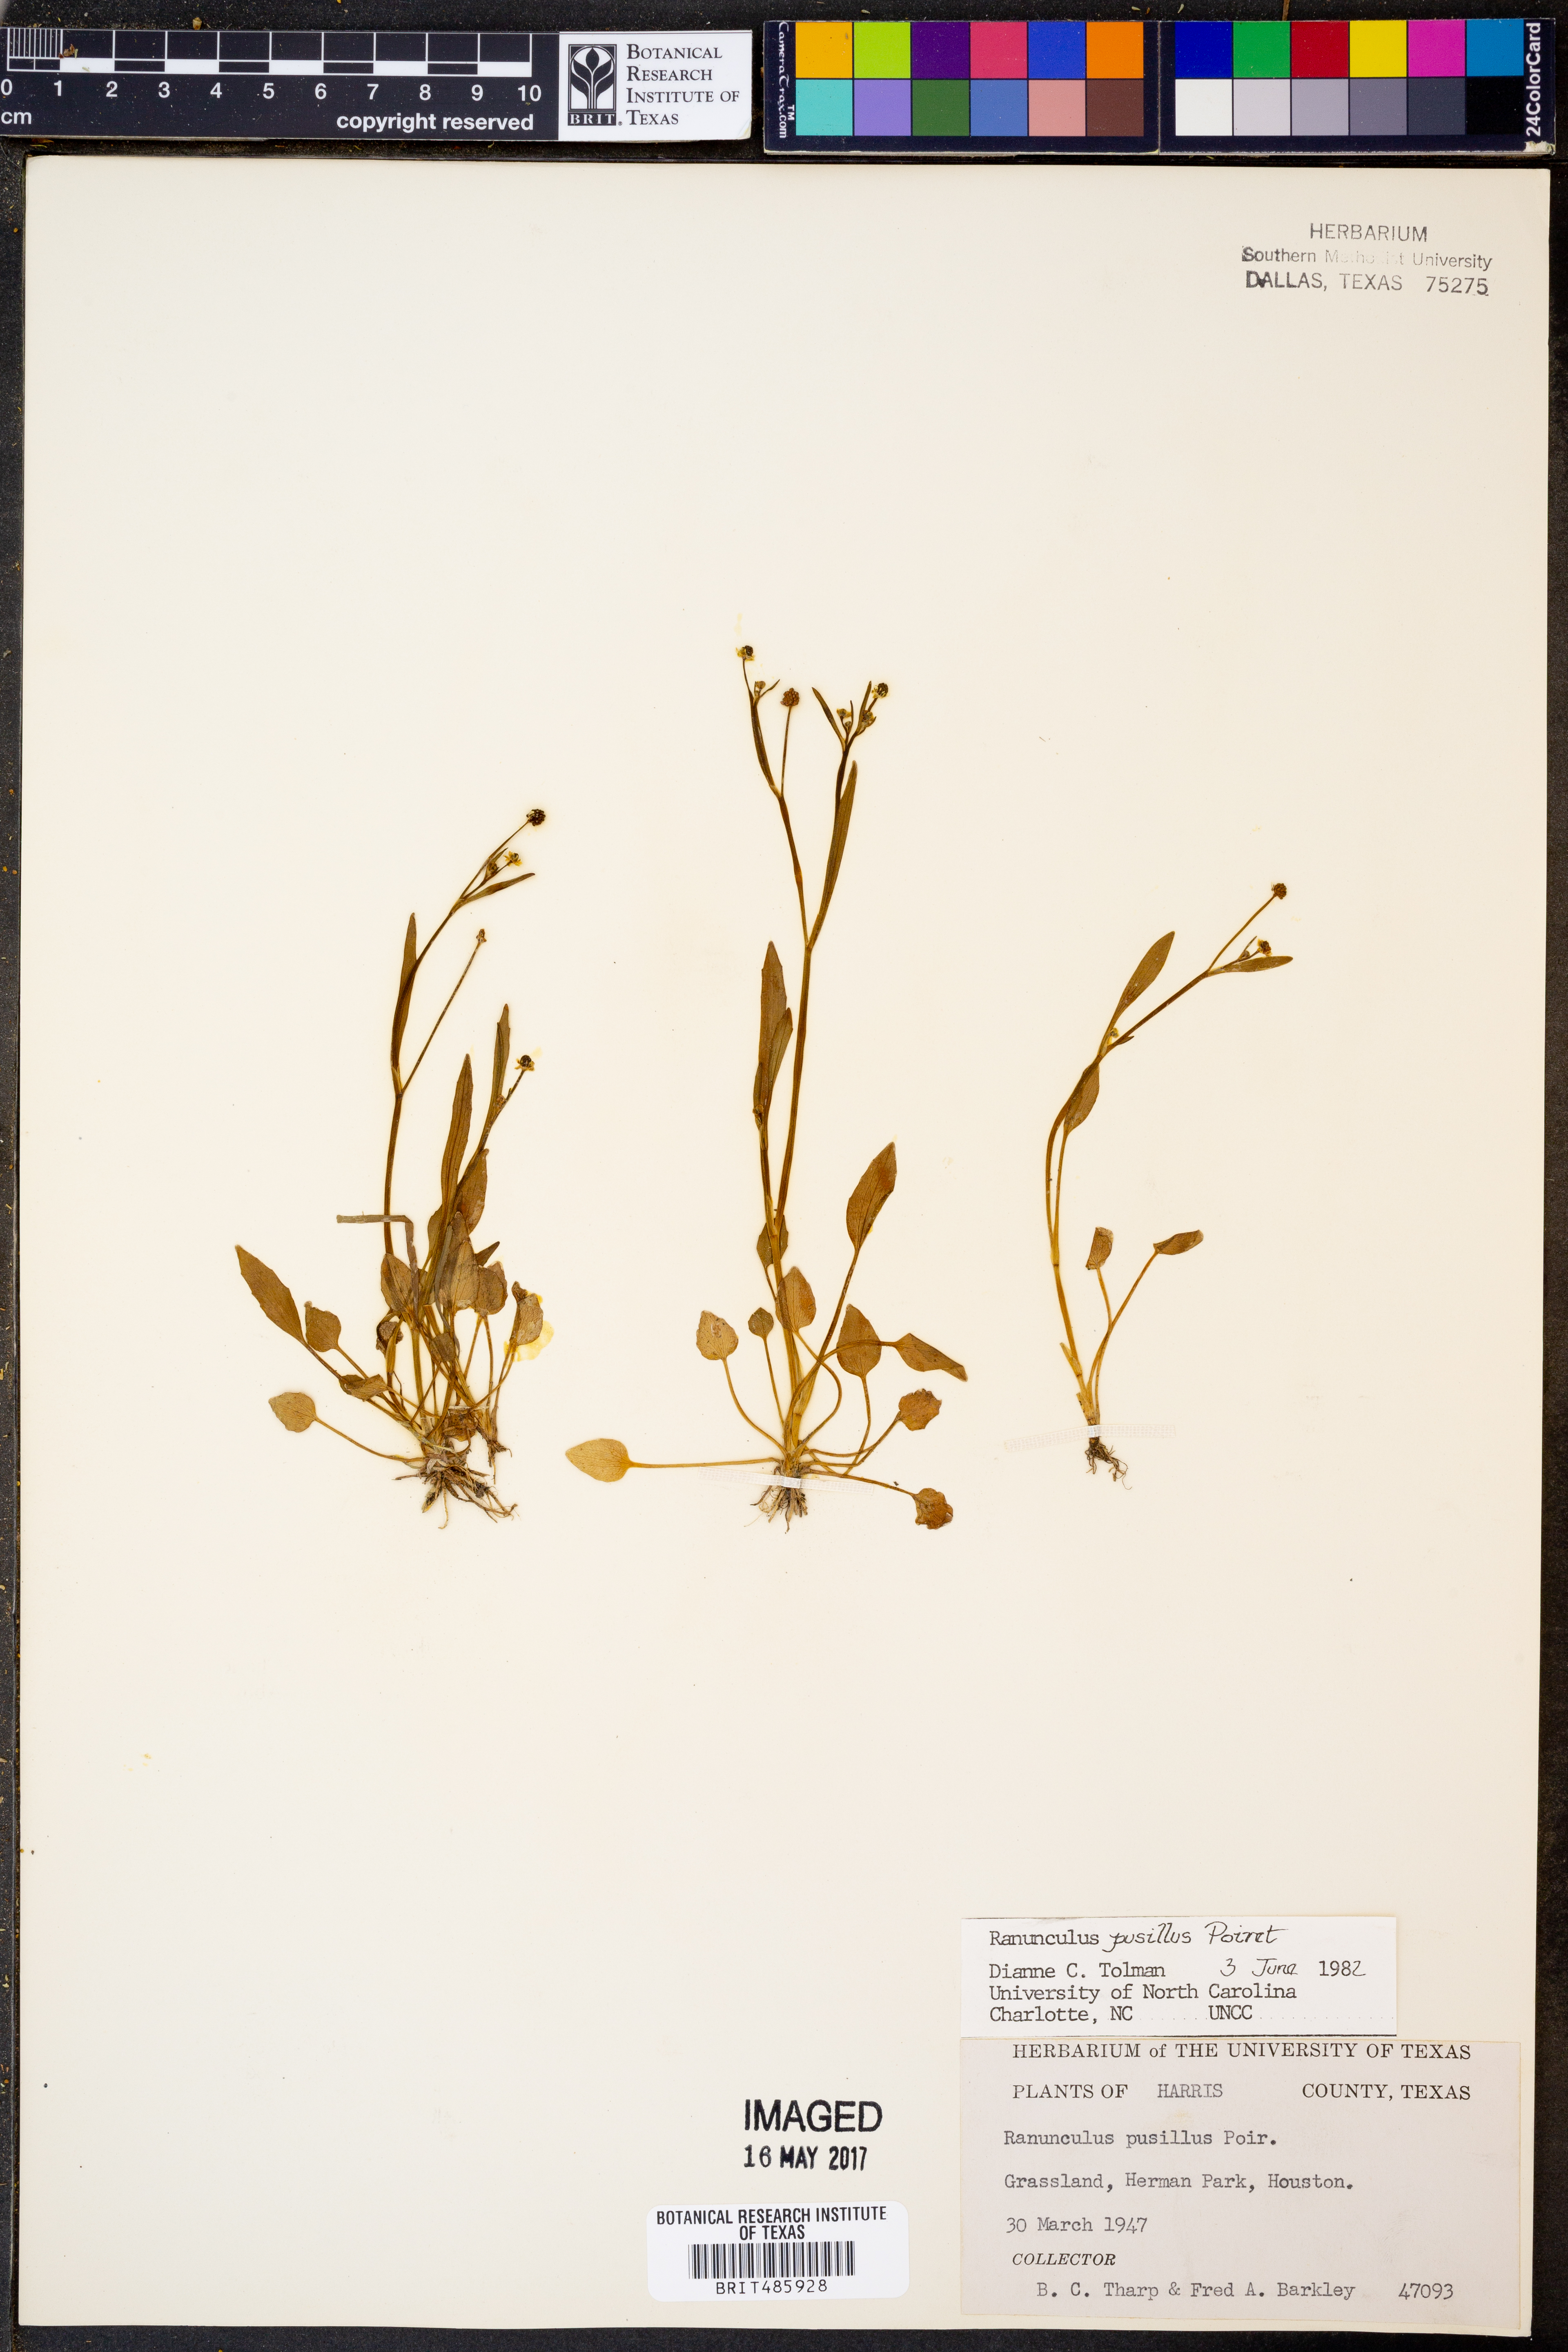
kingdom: Plantae
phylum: Tracheophyta
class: Magnoliopsida
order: Ranunculales
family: Ranunculaceae
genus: Ranunculus
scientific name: Ranunculus pusillus
